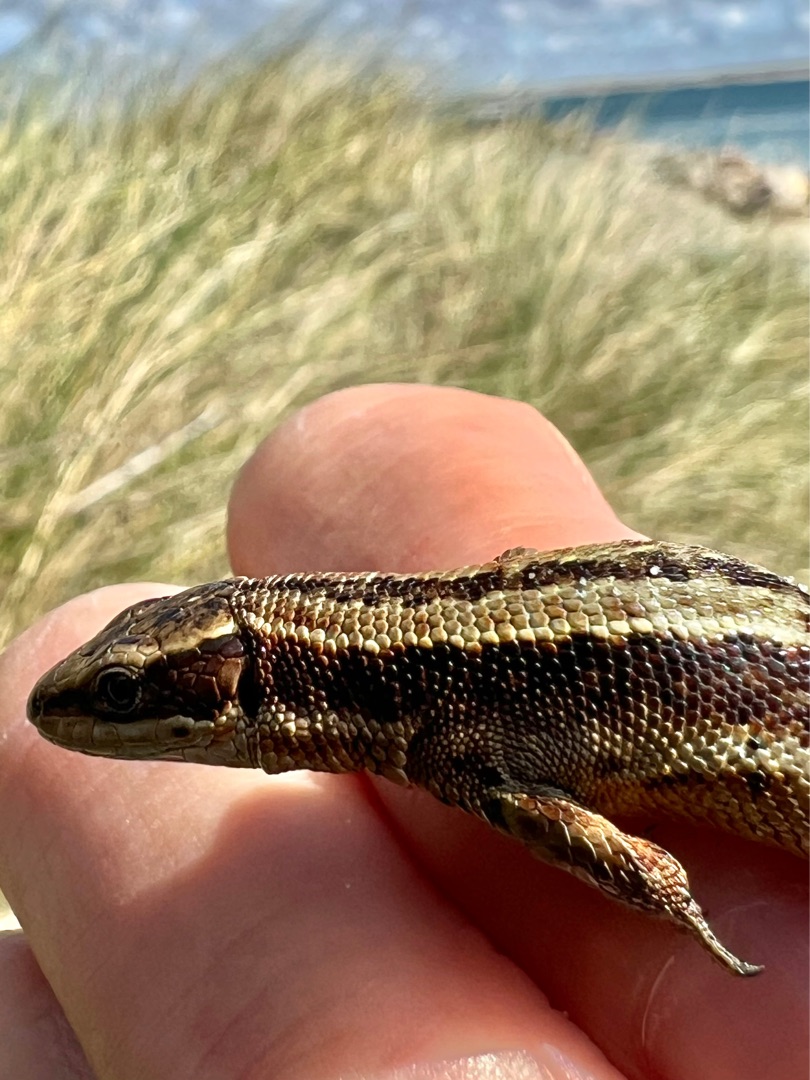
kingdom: Animalia
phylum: Chordata
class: Squamata
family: Lacertidae
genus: Zootoca
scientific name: Zootoca vivipara
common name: Skovfirben
